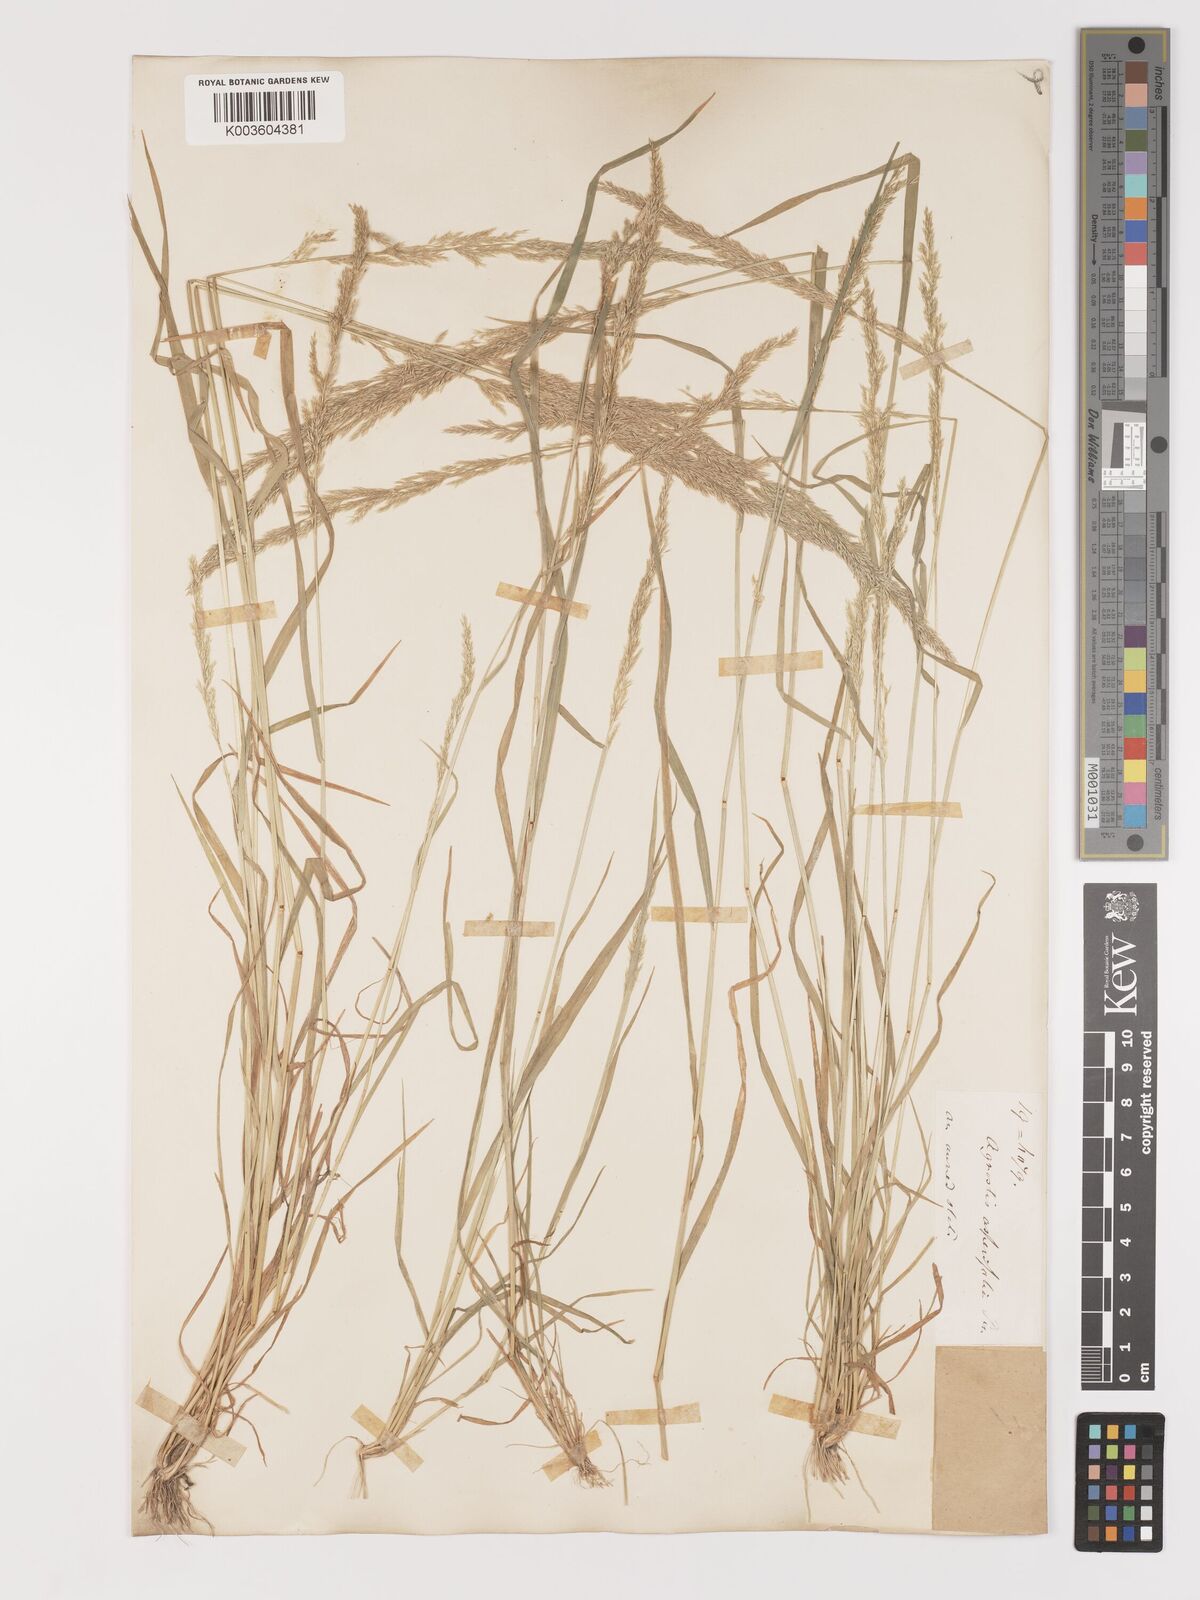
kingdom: Plantae
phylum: Tracheophyta
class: Liliopsida
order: Poales
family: Poaceae
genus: Agrostis
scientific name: Agrostis exarata
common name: Spike bent
